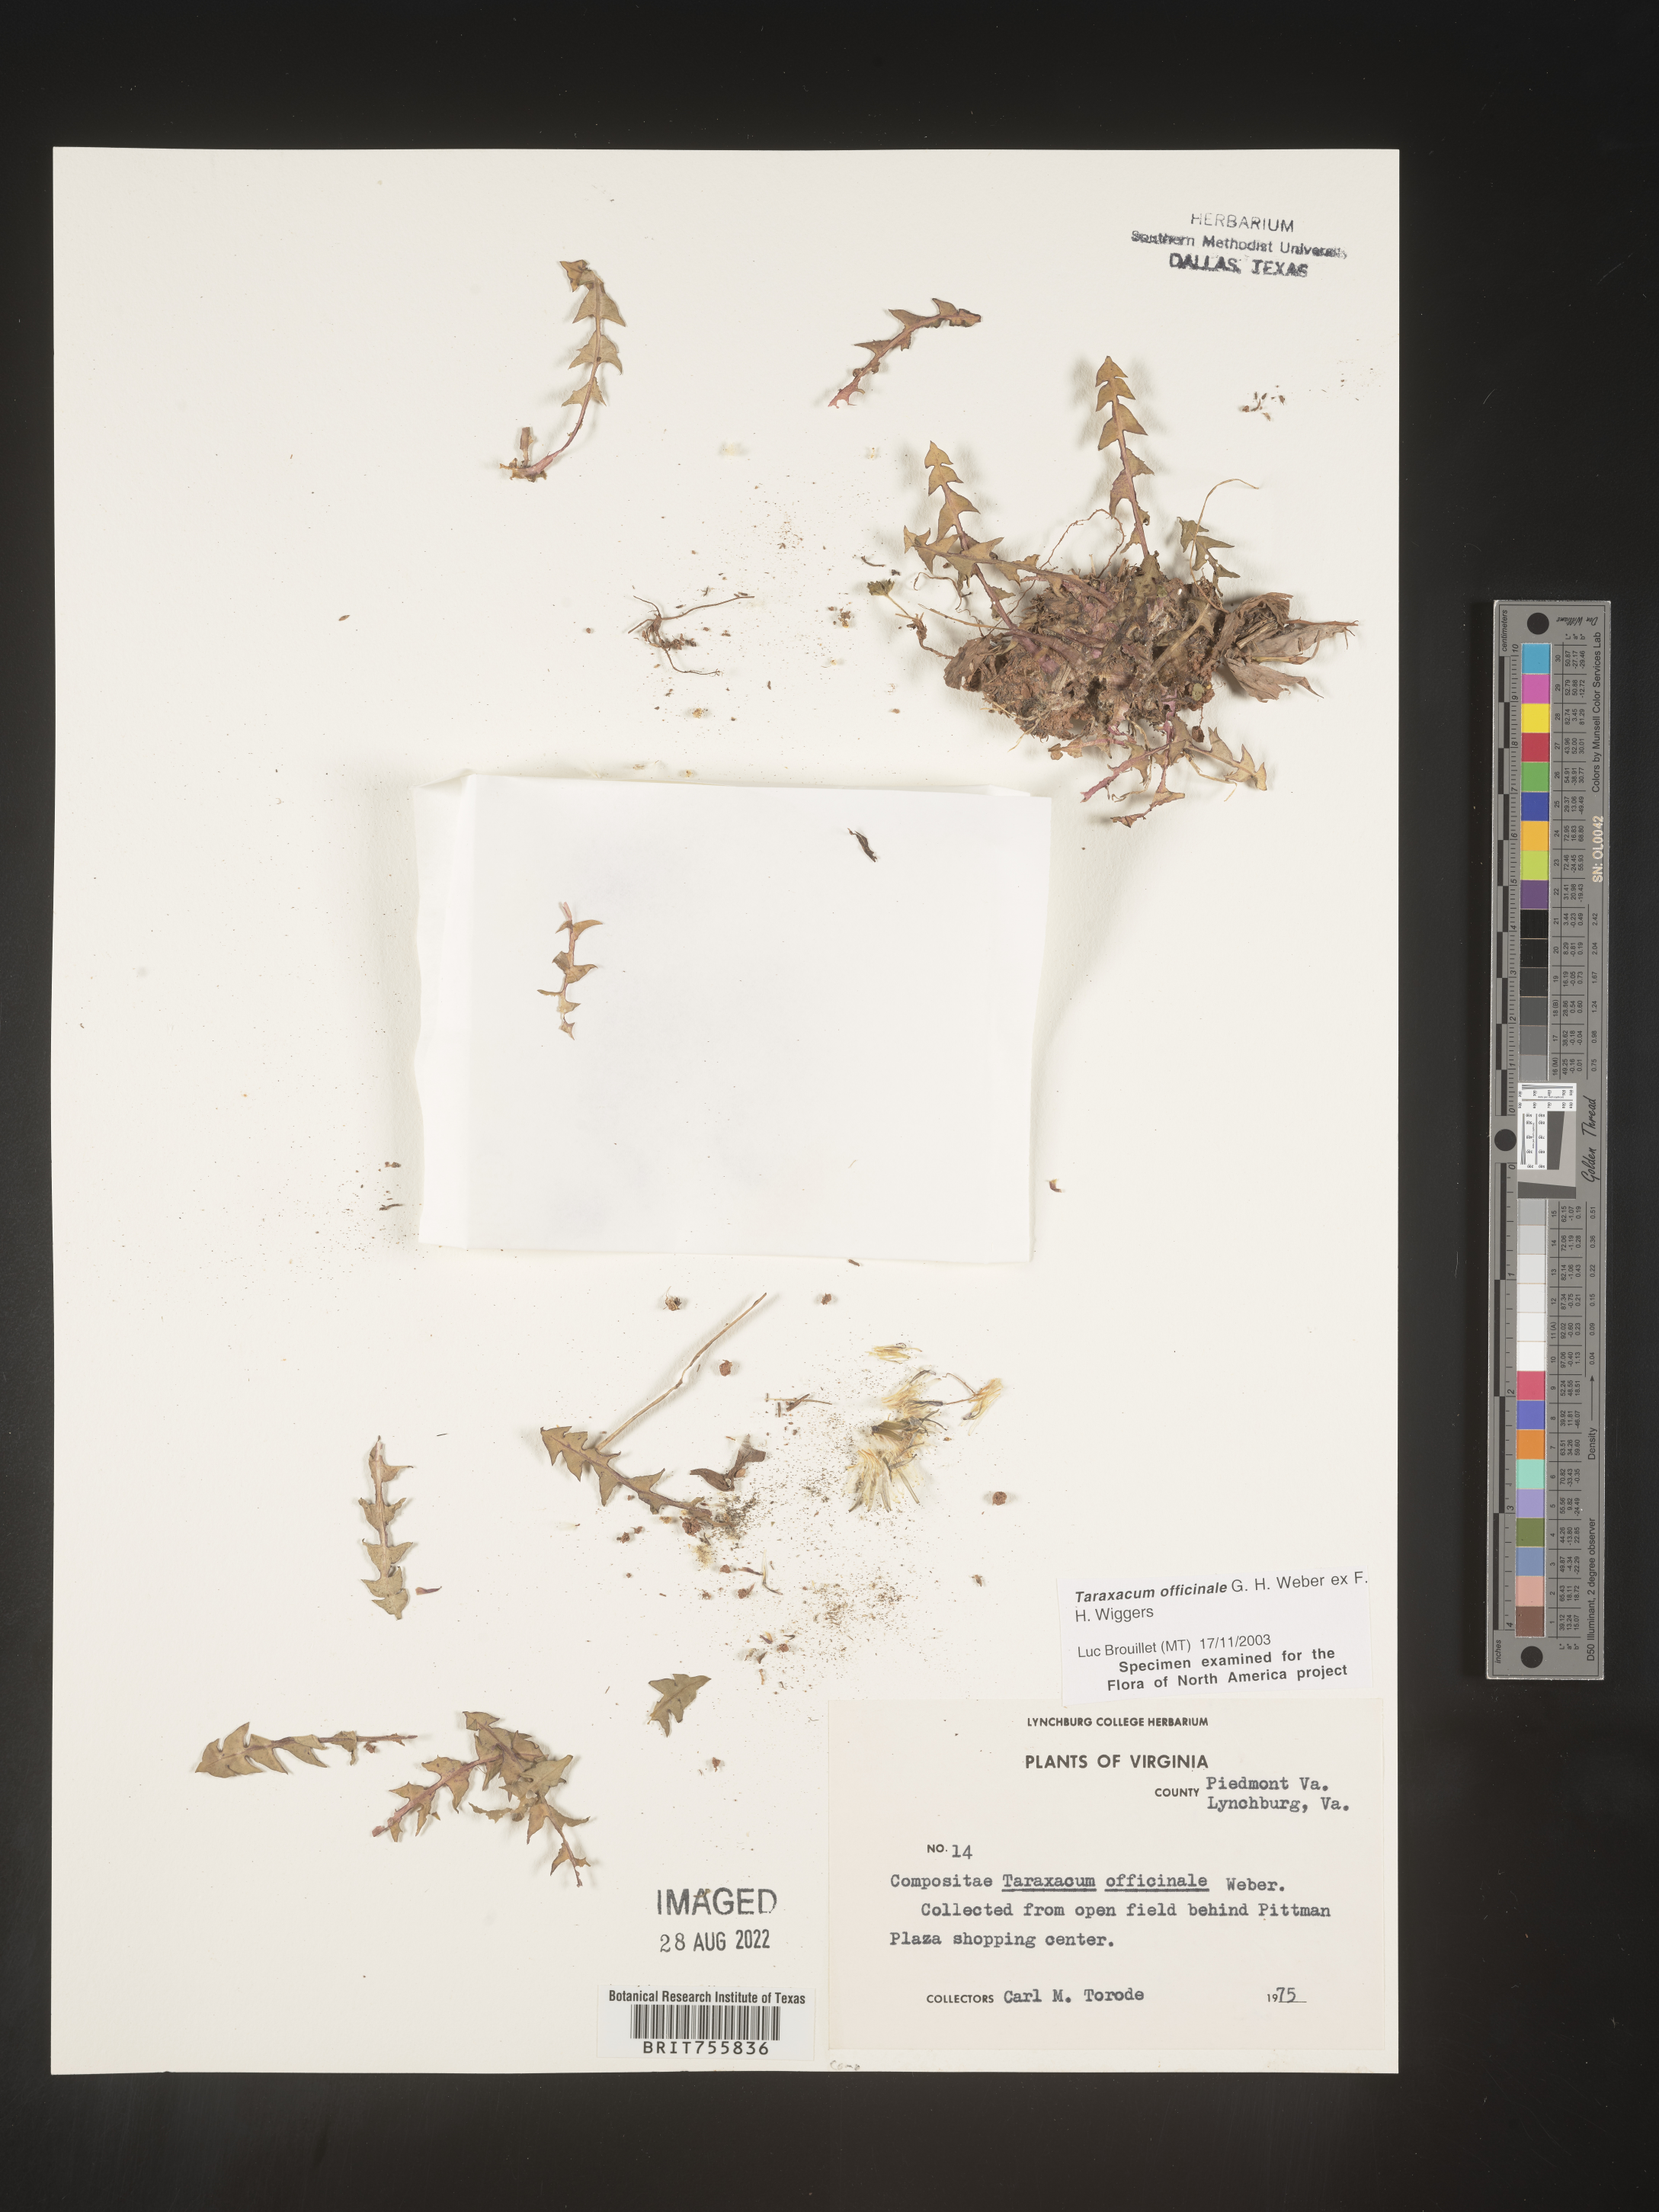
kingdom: Plantae
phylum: Tracheophyta
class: Magnoliopsida
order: Asterales
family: Asteraceae
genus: Taraxacum
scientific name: Taraxacum officinale
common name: Common dandelion
